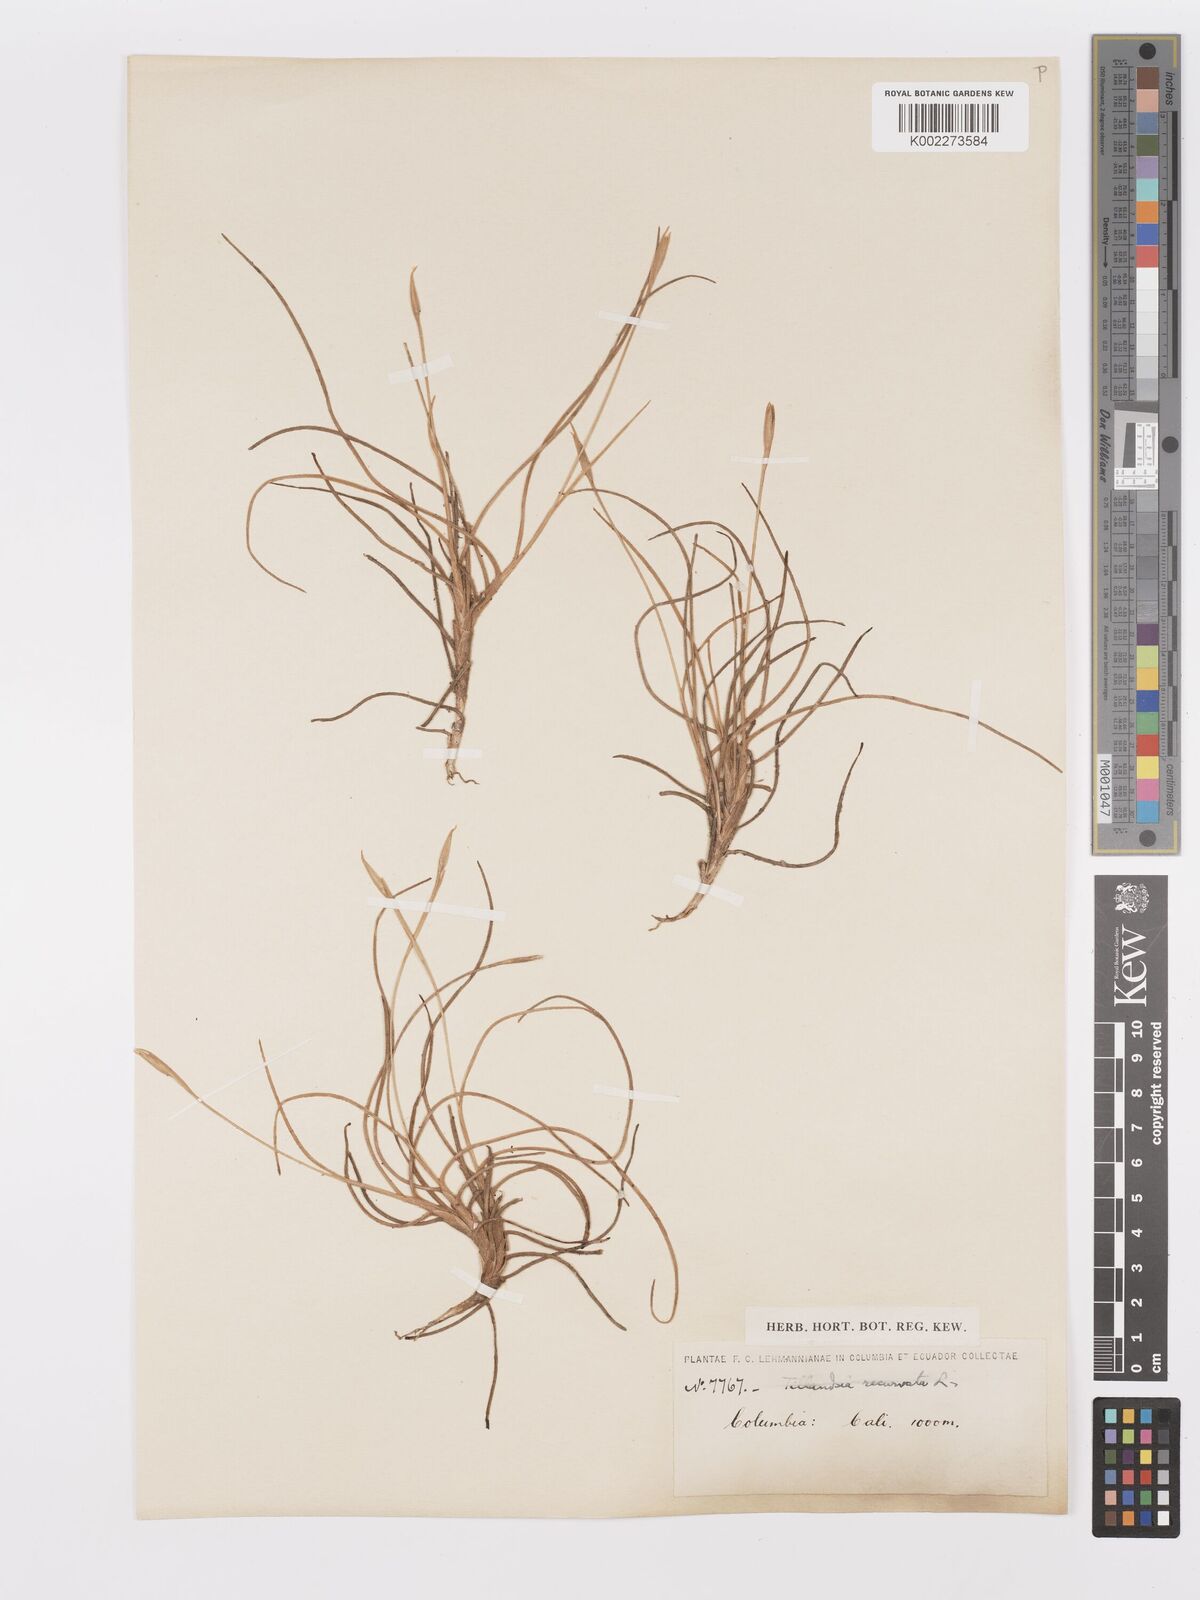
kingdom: Plantae
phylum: Tracheophyta
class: Liliopsida
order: Poales
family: Bromeliaceae
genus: Tillandsia
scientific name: Tillandsia recurvata
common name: Small ballmoss
